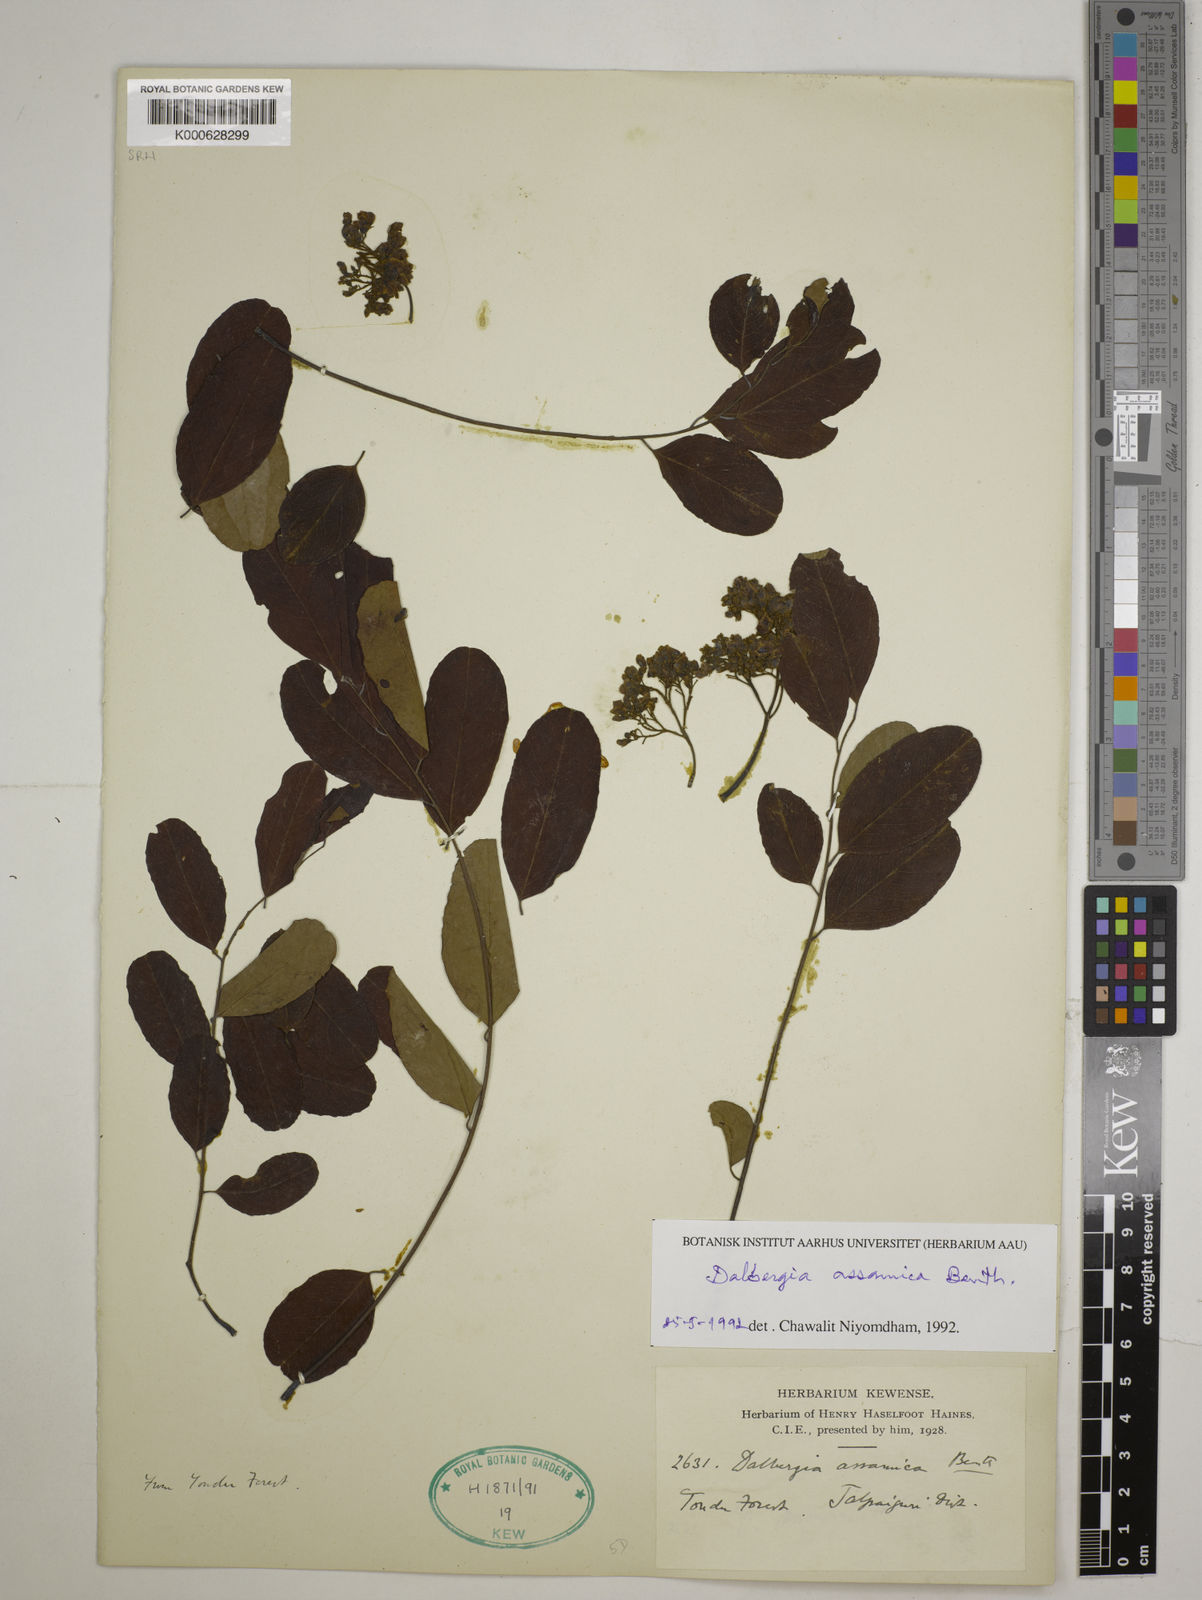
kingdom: Plantae
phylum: Tracheophyta
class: Magnoliopsida
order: Fabales
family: Fabaceae
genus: Dalbergia
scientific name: Dalbergia assamica
